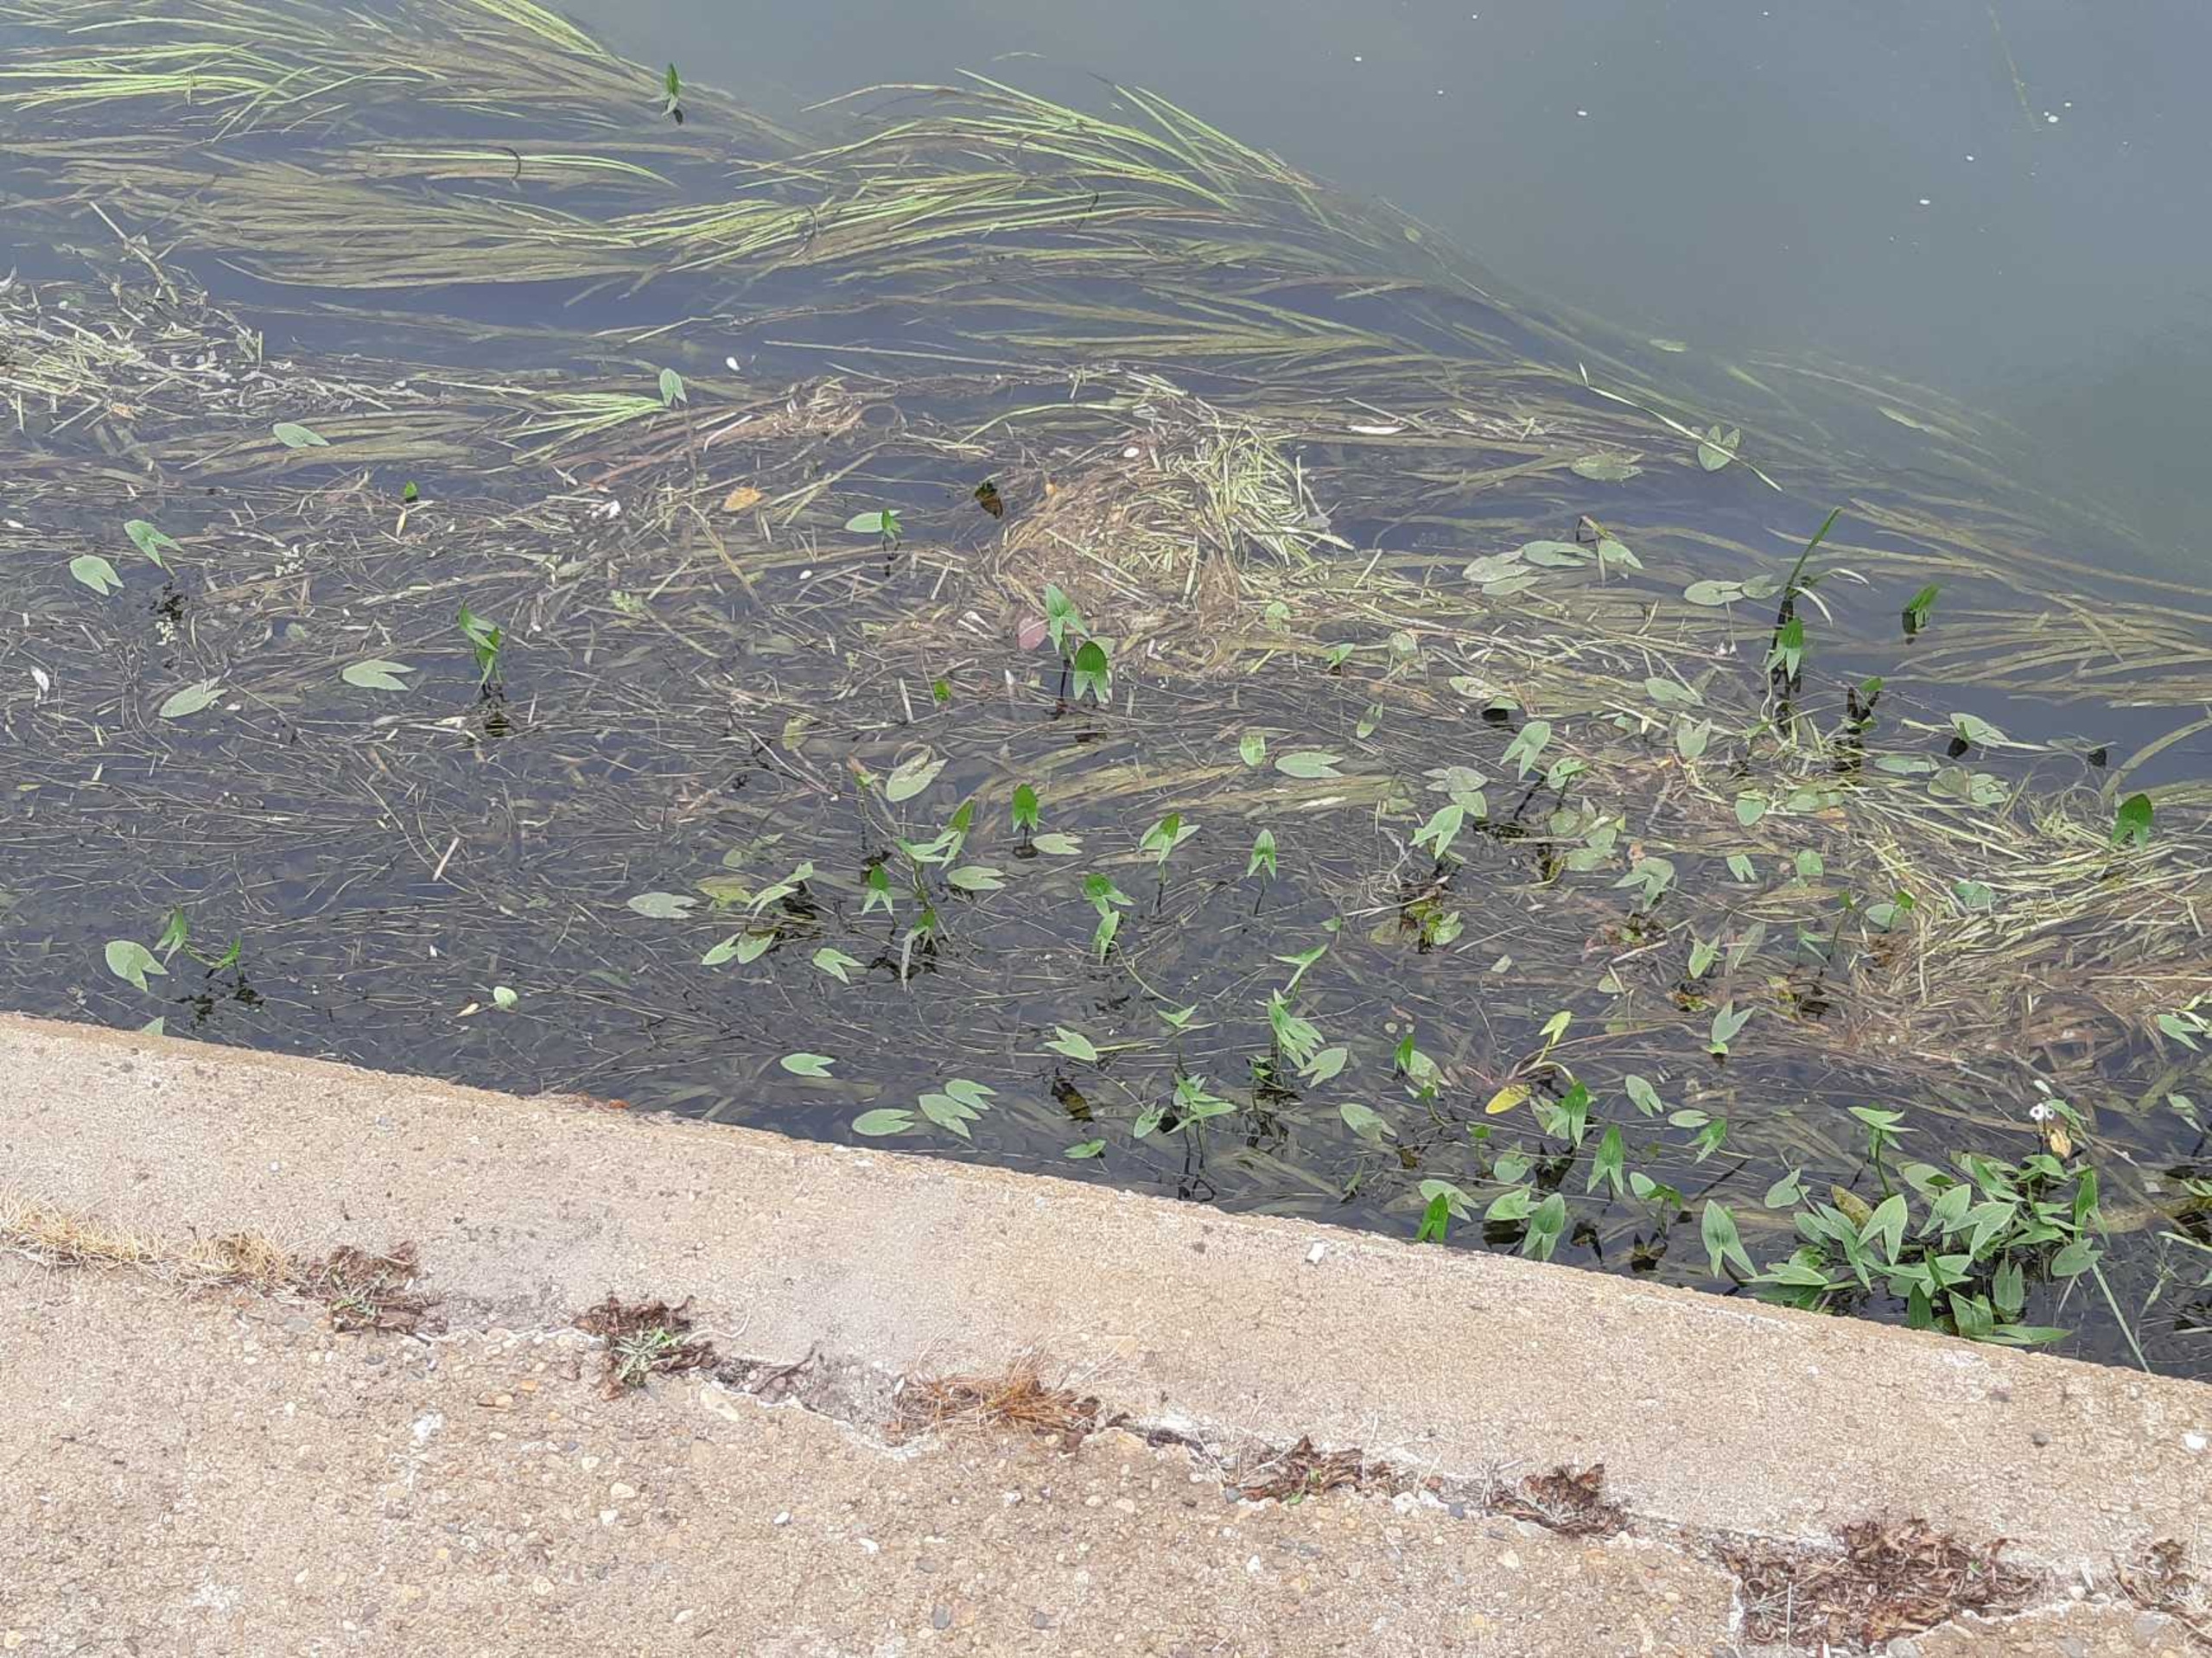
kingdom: Plantae
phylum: Tracheophyta
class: Liliopsida
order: Alismatales
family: Alismataceae
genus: Sagittaria
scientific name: Sagittaria sagittifolia
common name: Pilblad
